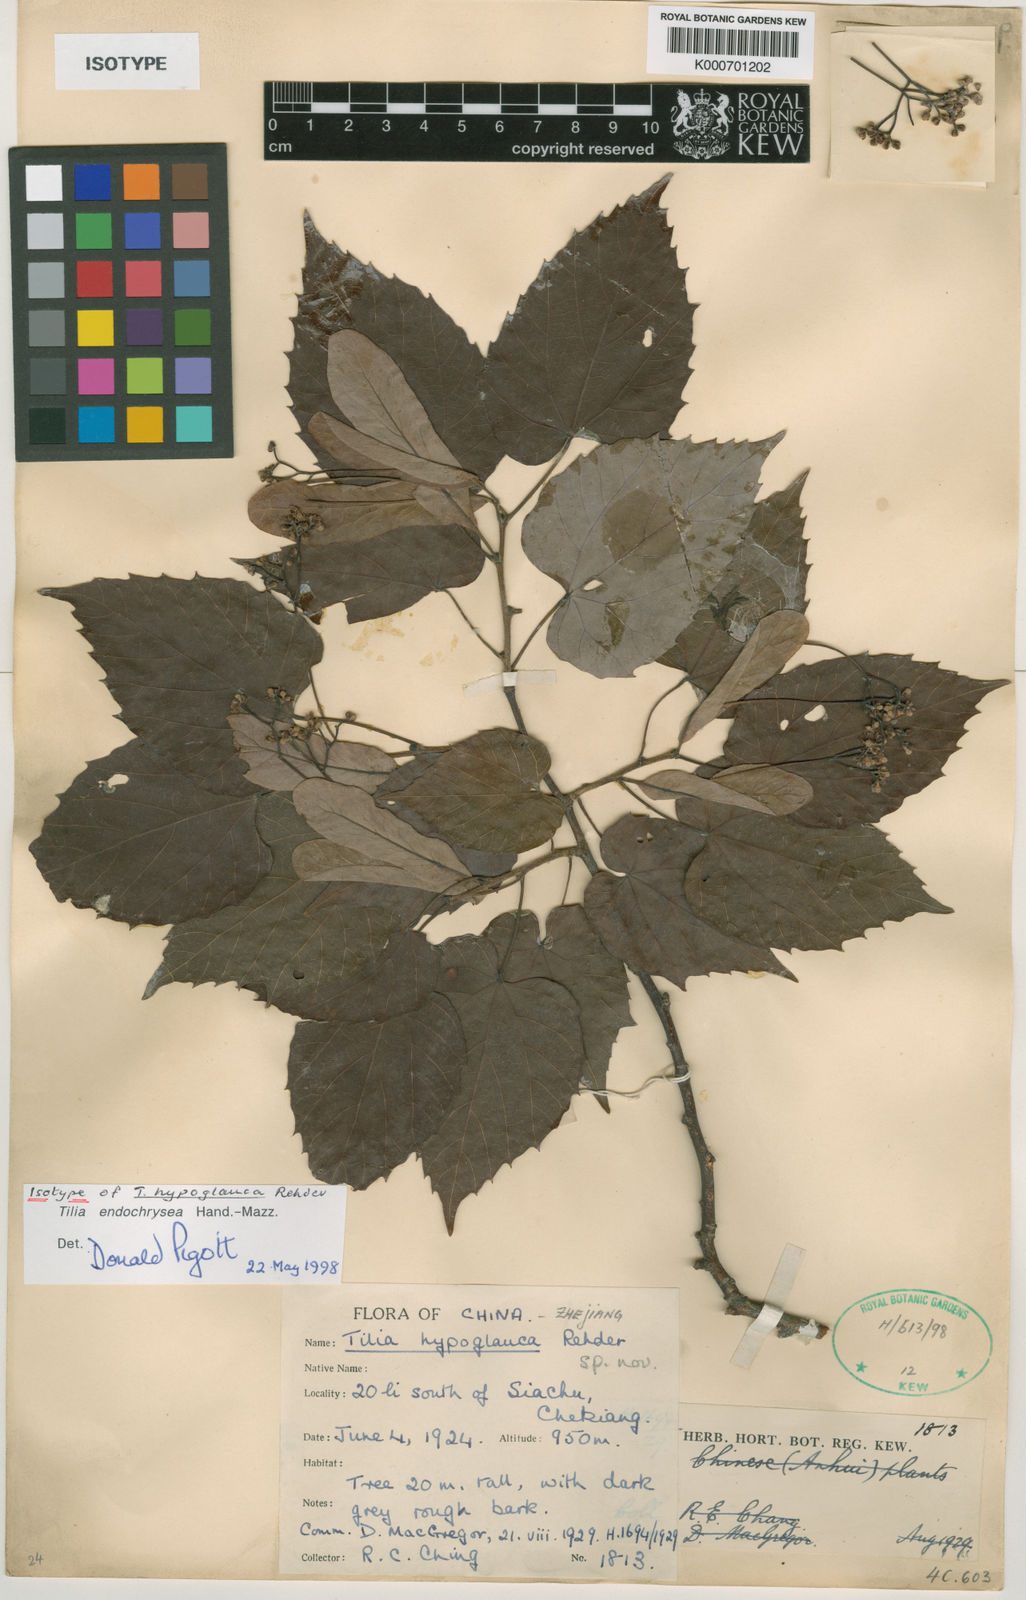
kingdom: Plantae
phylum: Tracheophyta
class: Magnoliopsida
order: Malvales
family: Malvaceae
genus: Tilia
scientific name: Tilia endochrysea
